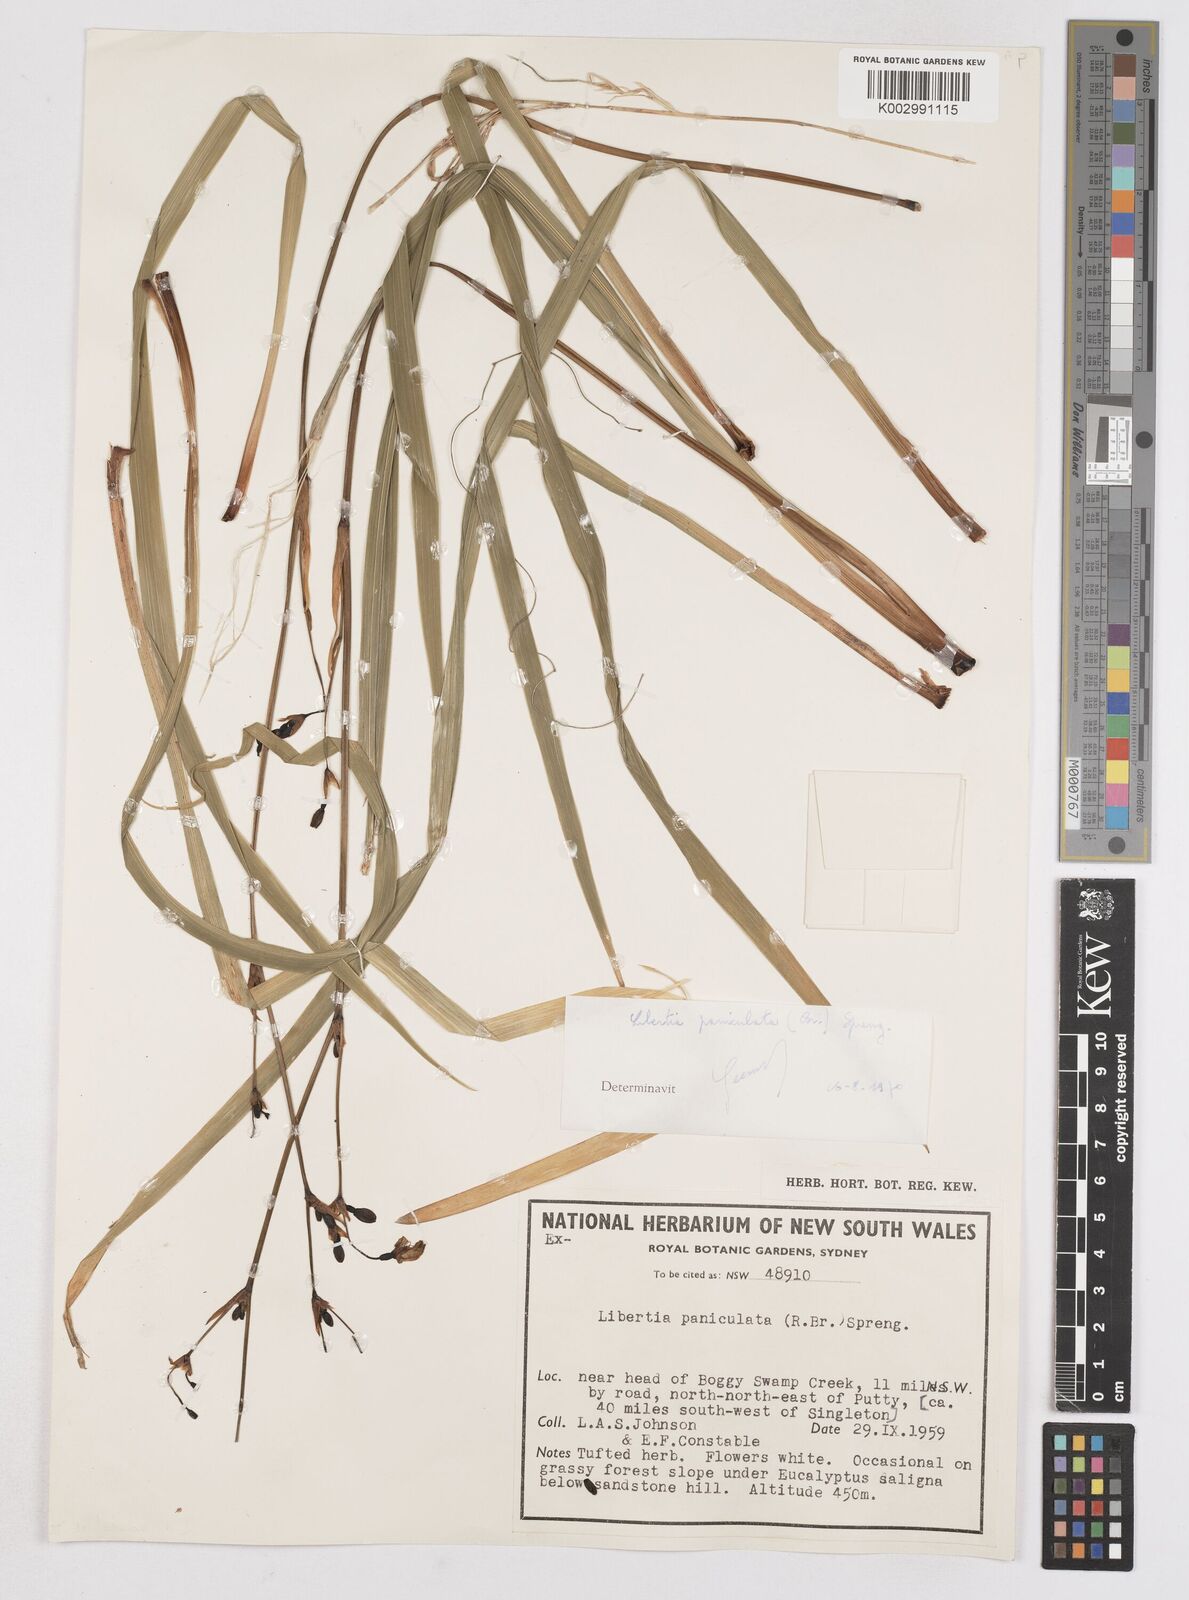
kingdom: Plantae
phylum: Tracheophyta
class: Liliopsida
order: Asparagales
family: Iridaceae
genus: Libertia
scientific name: Libertia paniculata
